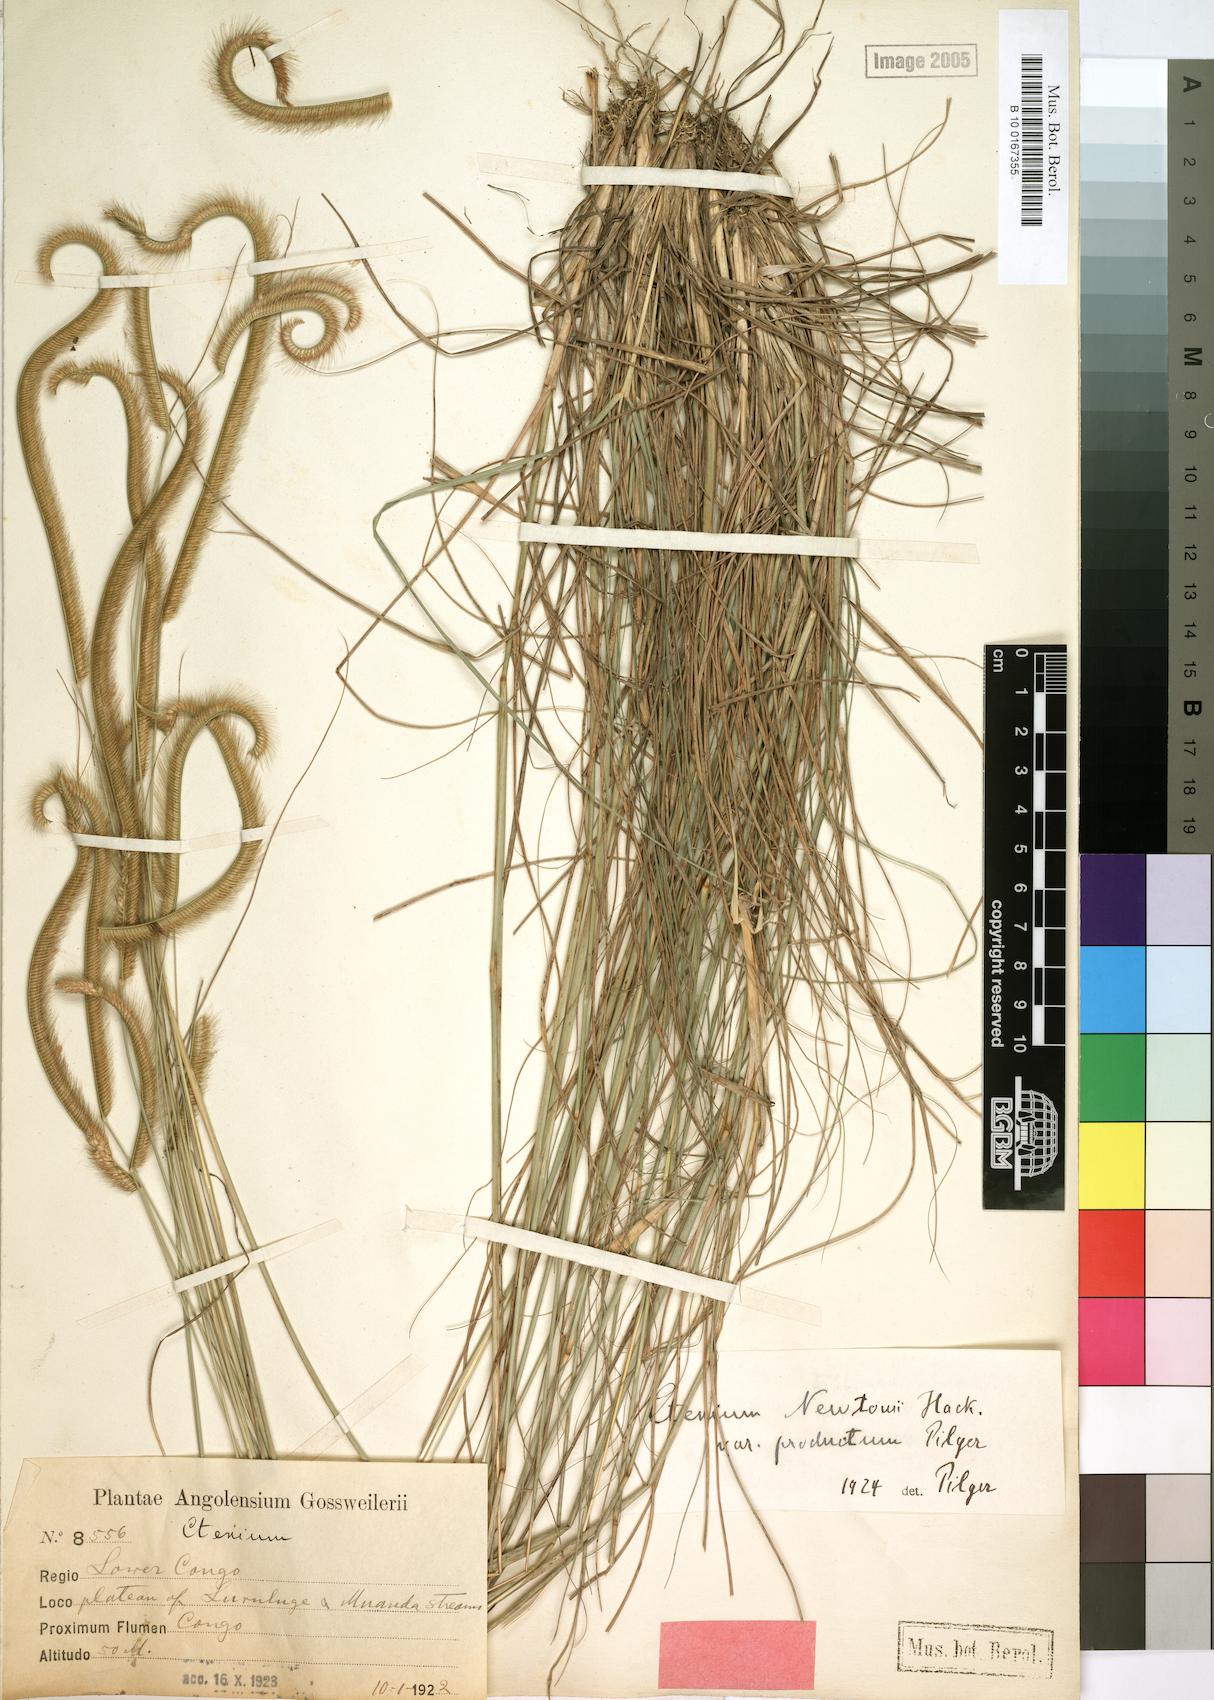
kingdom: Plantae
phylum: Tracheophyta
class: Liliopsida
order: Poales
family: Poaceae
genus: Ctenium
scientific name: Ctenium newtonii
